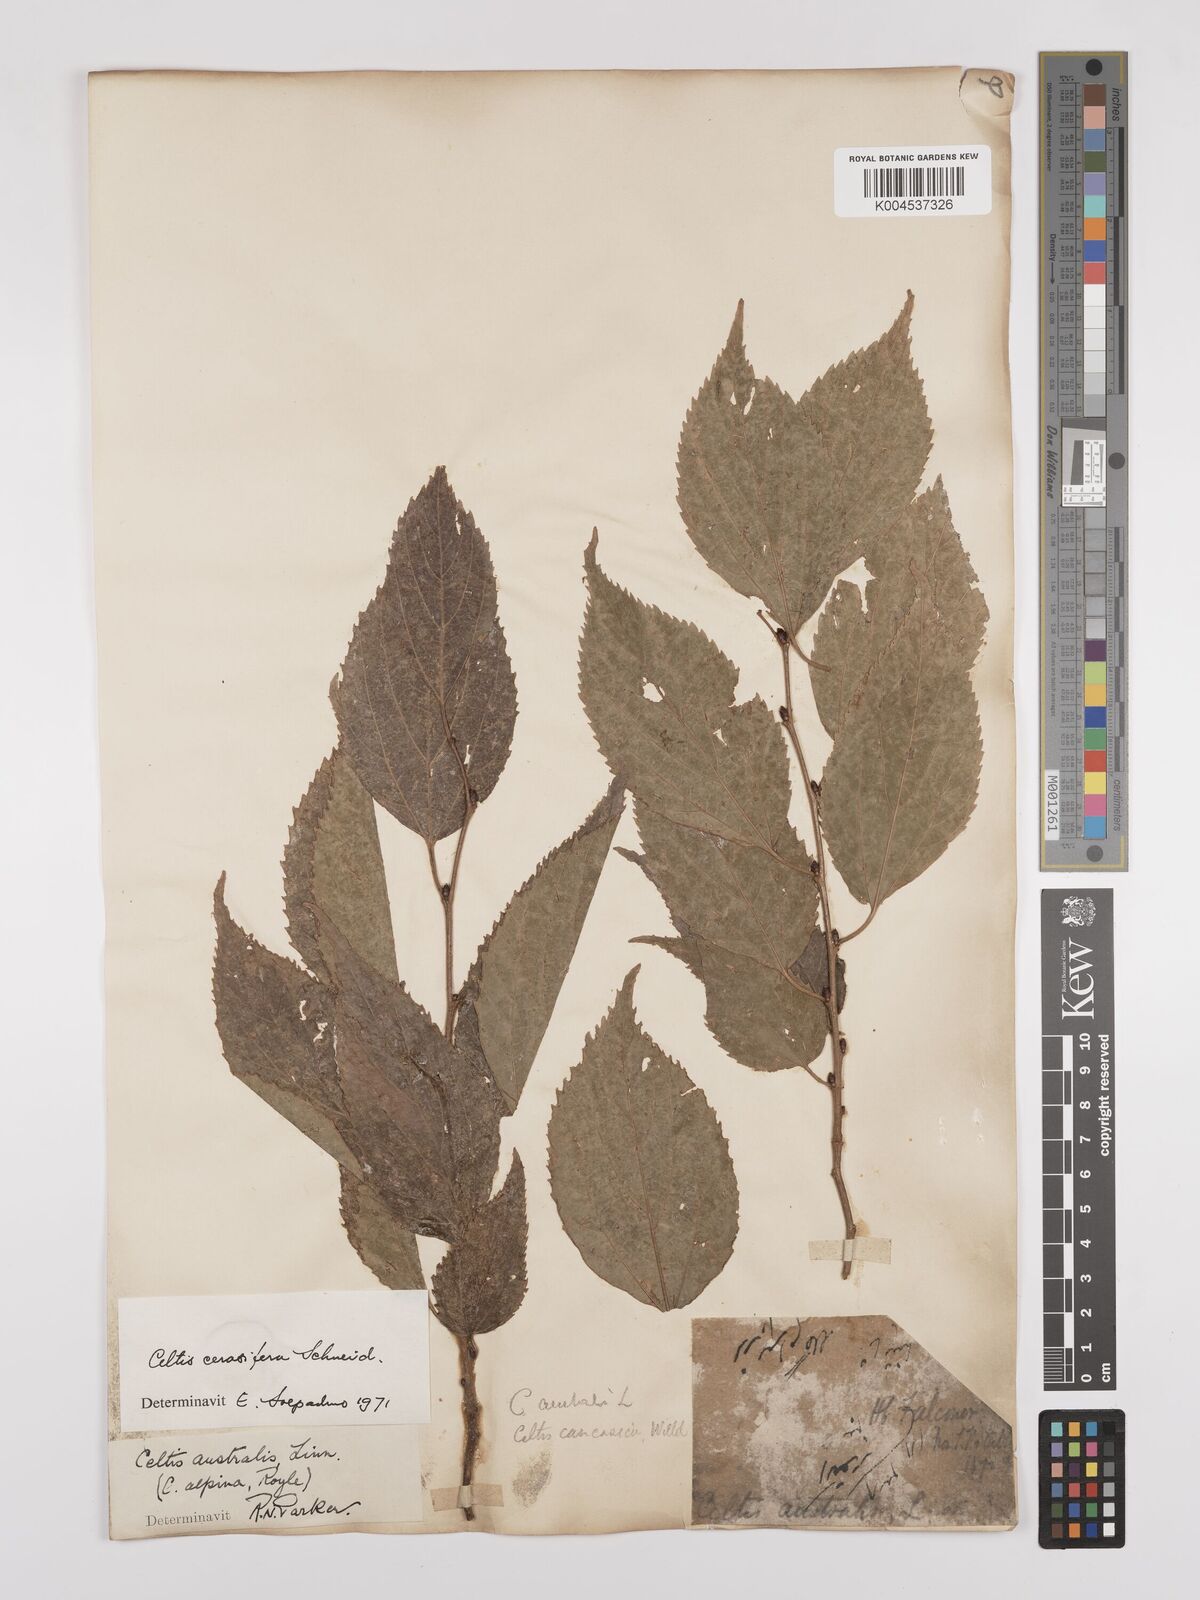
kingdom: Plantae
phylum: Tracheophyta
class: Magnoliopsida
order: Rosales
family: Cannabaceae
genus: Celtis
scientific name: Celtis cerasifera
